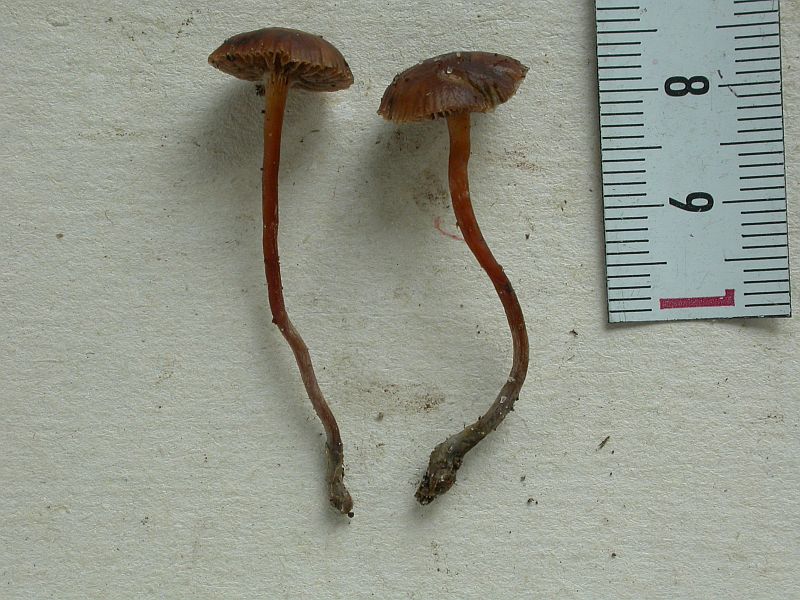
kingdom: Fungi
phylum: Basidiomycota
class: Agaricomycetes
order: Agaricales
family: Strophariaceae
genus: Deconica
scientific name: Deconica
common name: stråhat
